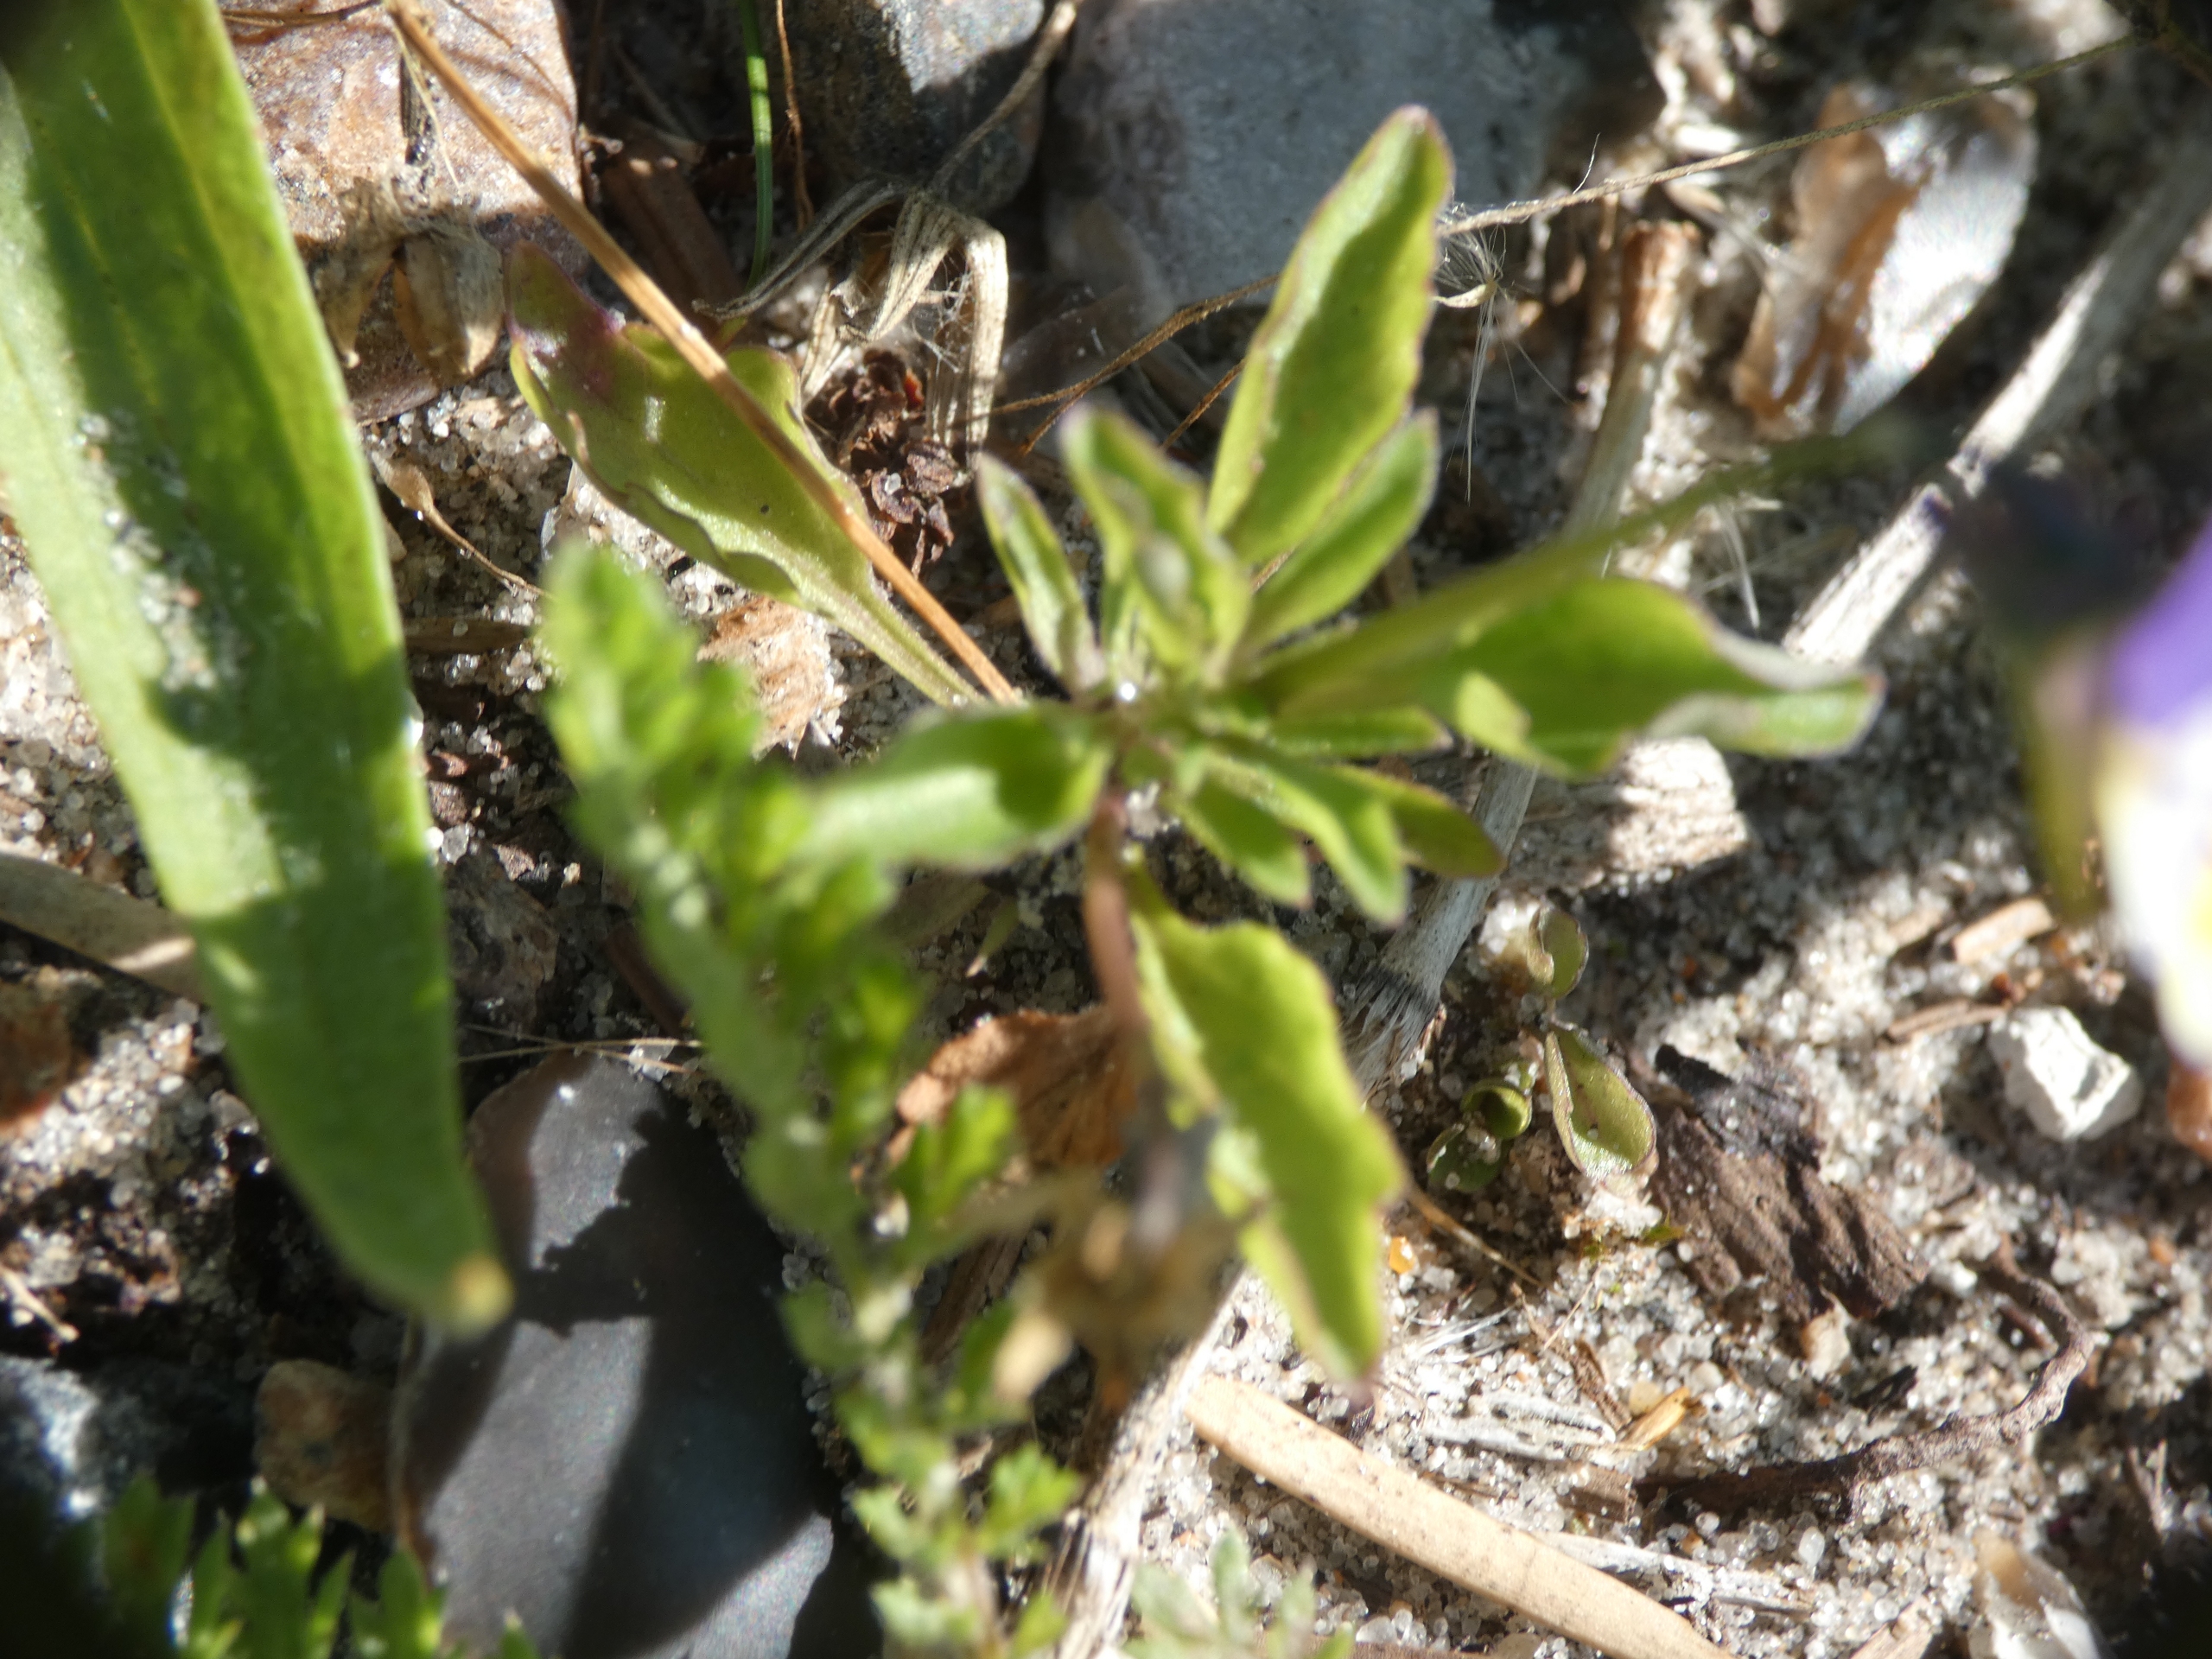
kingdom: Plantae
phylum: Tracheophyta
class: Magnoliopsida
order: Malpighiales
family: Violaceae
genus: Viola
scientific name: Viola tricolor
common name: Stedmoderblomst
